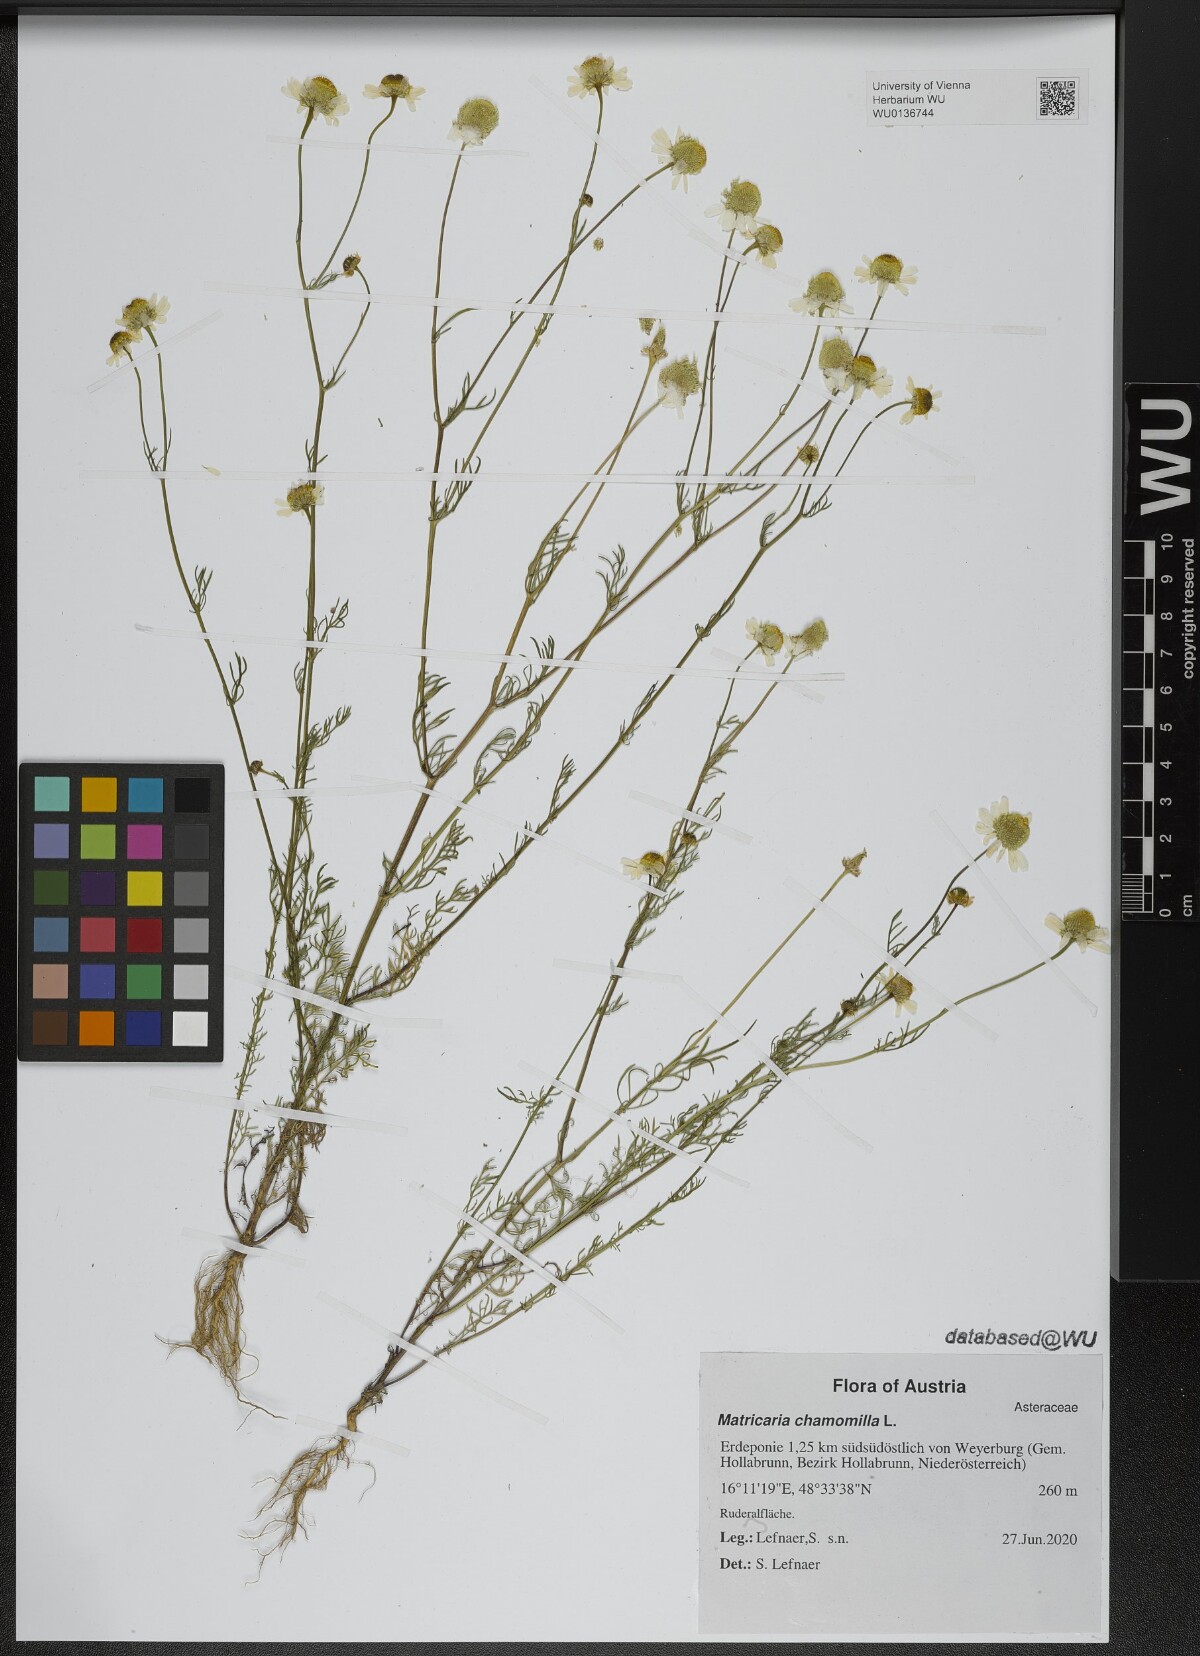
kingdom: Plantae
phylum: Tracheophyta
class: Magnoliopsida
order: Asterales
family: Asteraceae
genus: Matricaria
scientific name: Matricaria chamomilla
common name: Scented mayweed
